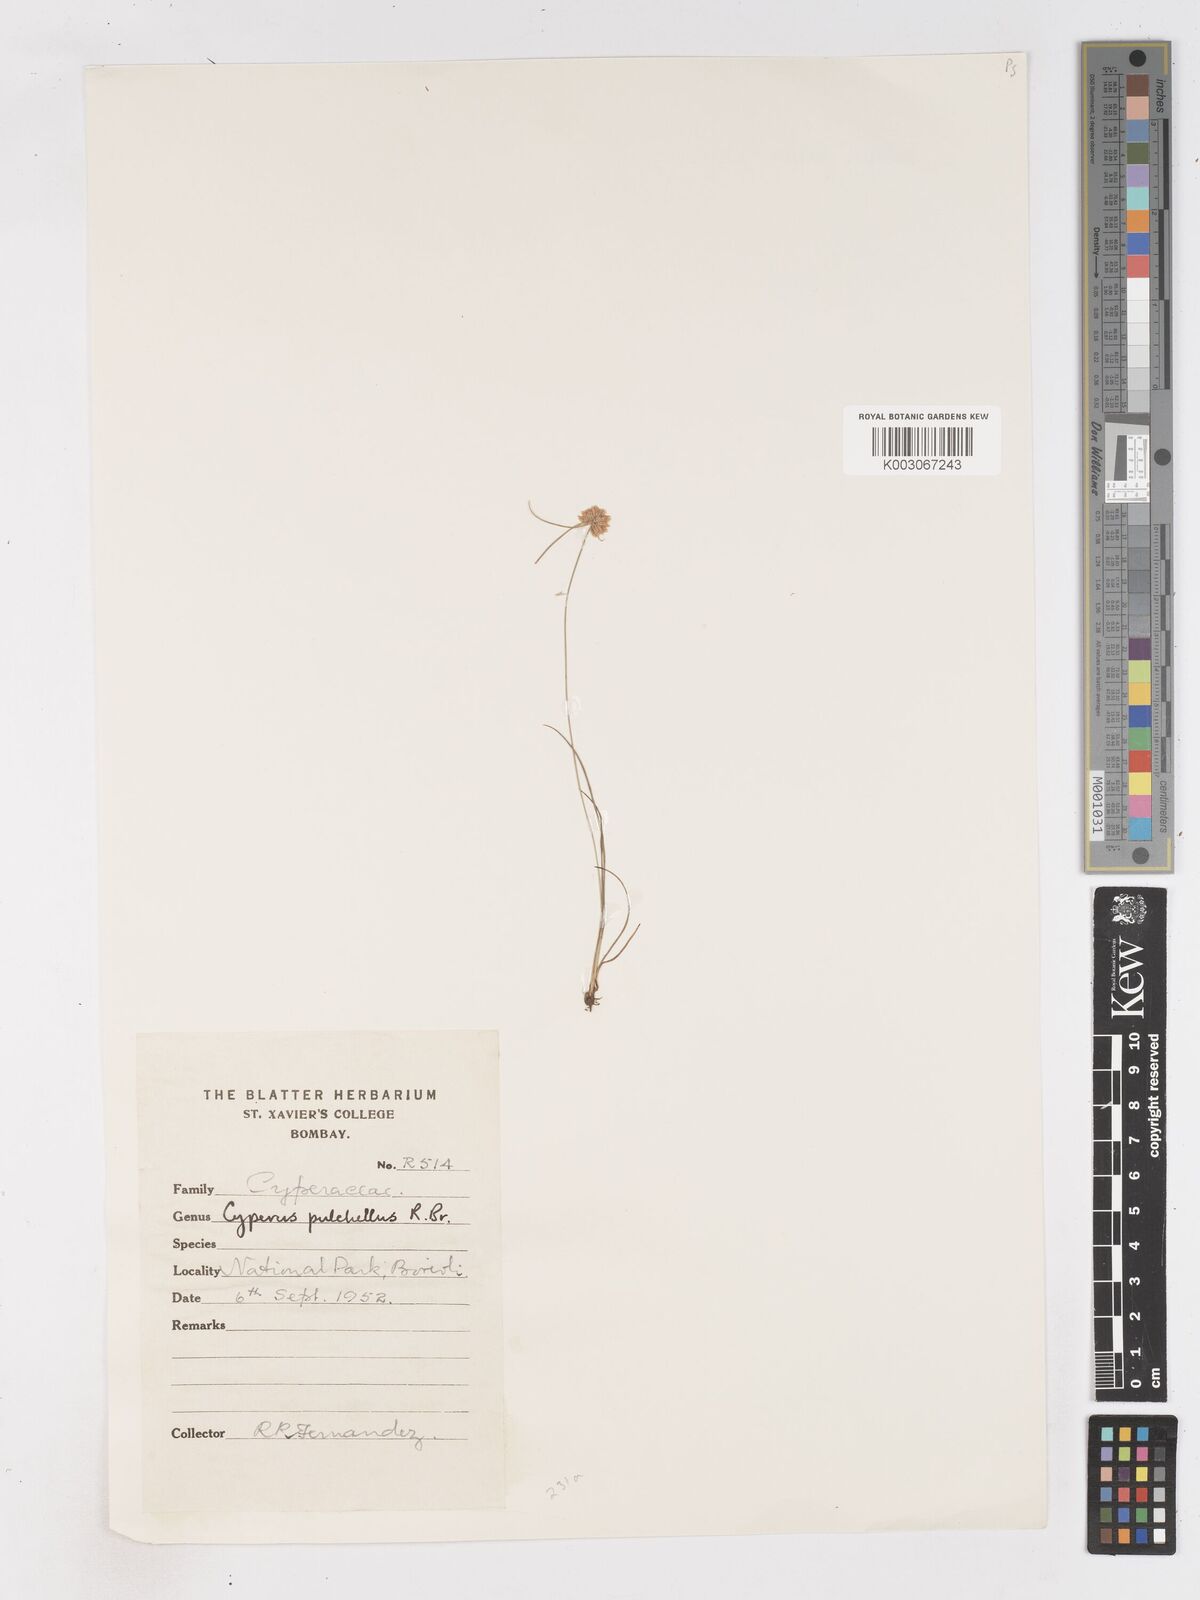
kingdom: Plantae
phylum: Tracheophyta
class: Liliopsida
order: Poales
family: Cyperaceae
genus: Cyperus
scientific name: Cyperus pulchellus
